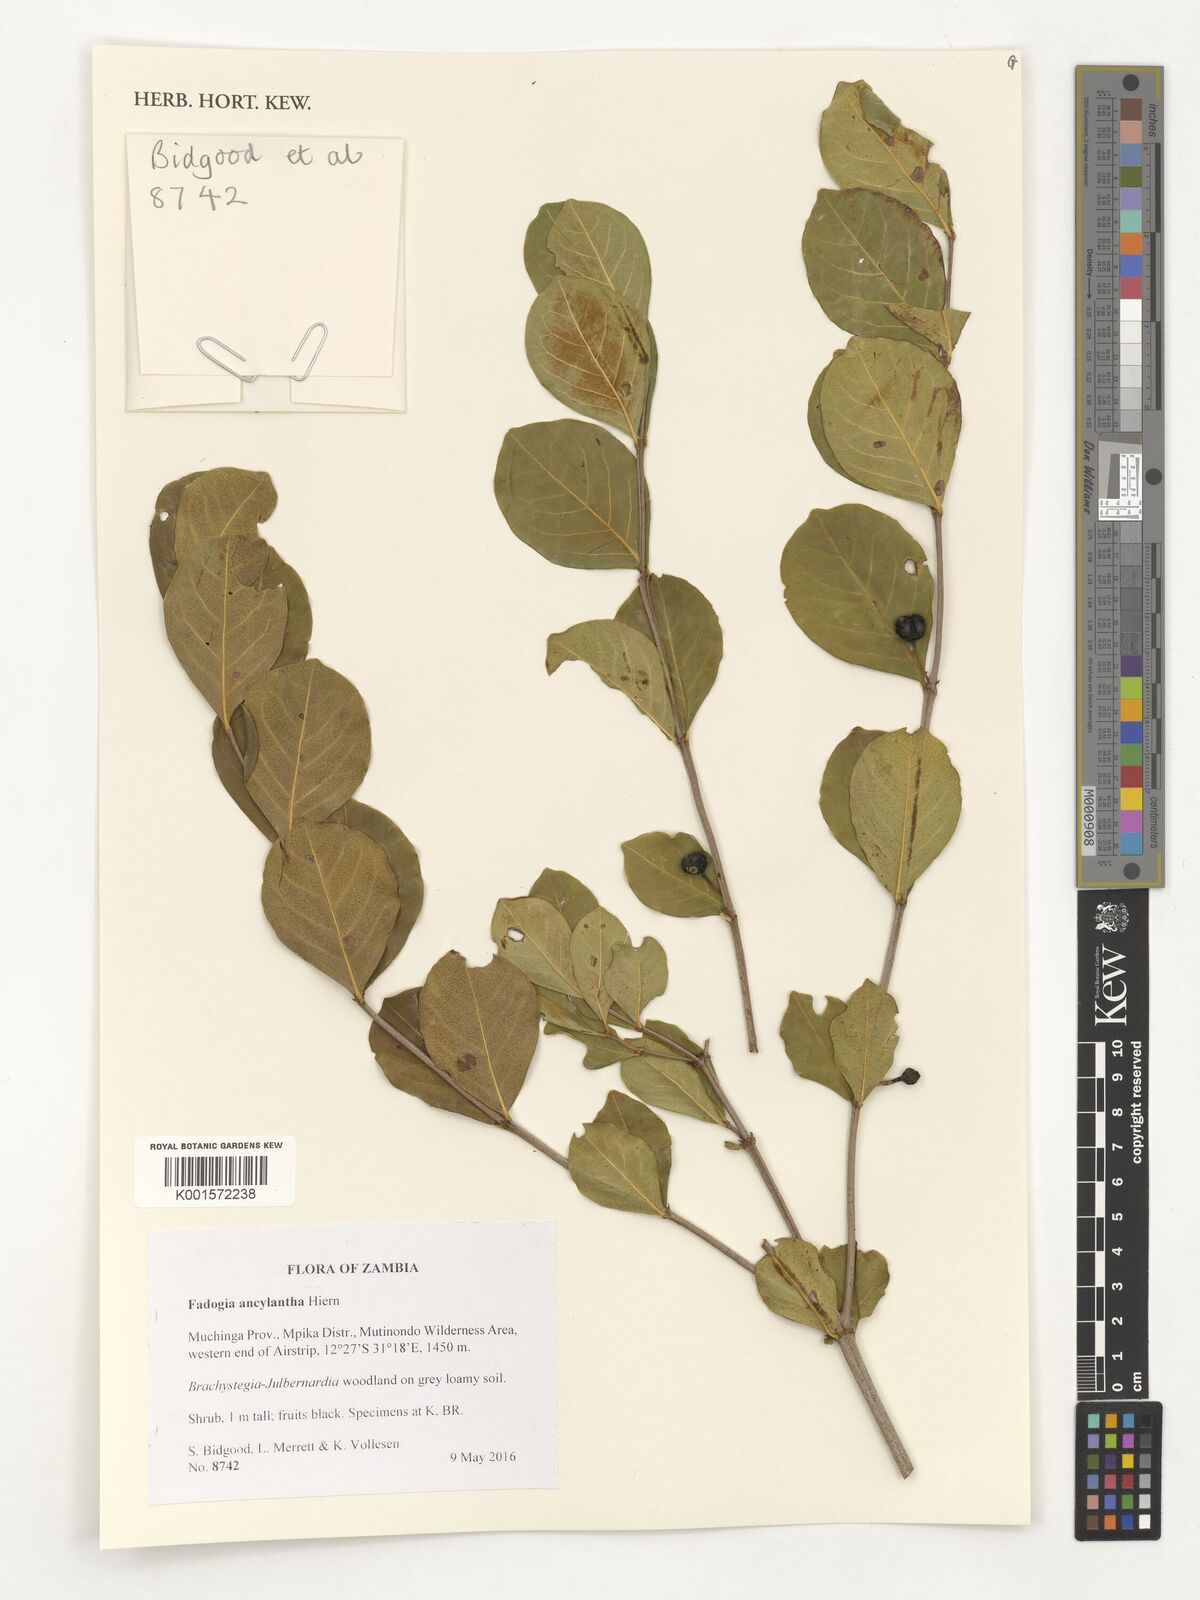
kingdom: Plantae
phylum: Tracheophyta
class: Magnoliopsida
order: Gentianales
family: Rubiaceae
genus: Fadogia
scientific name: Fadogia ancylantha
